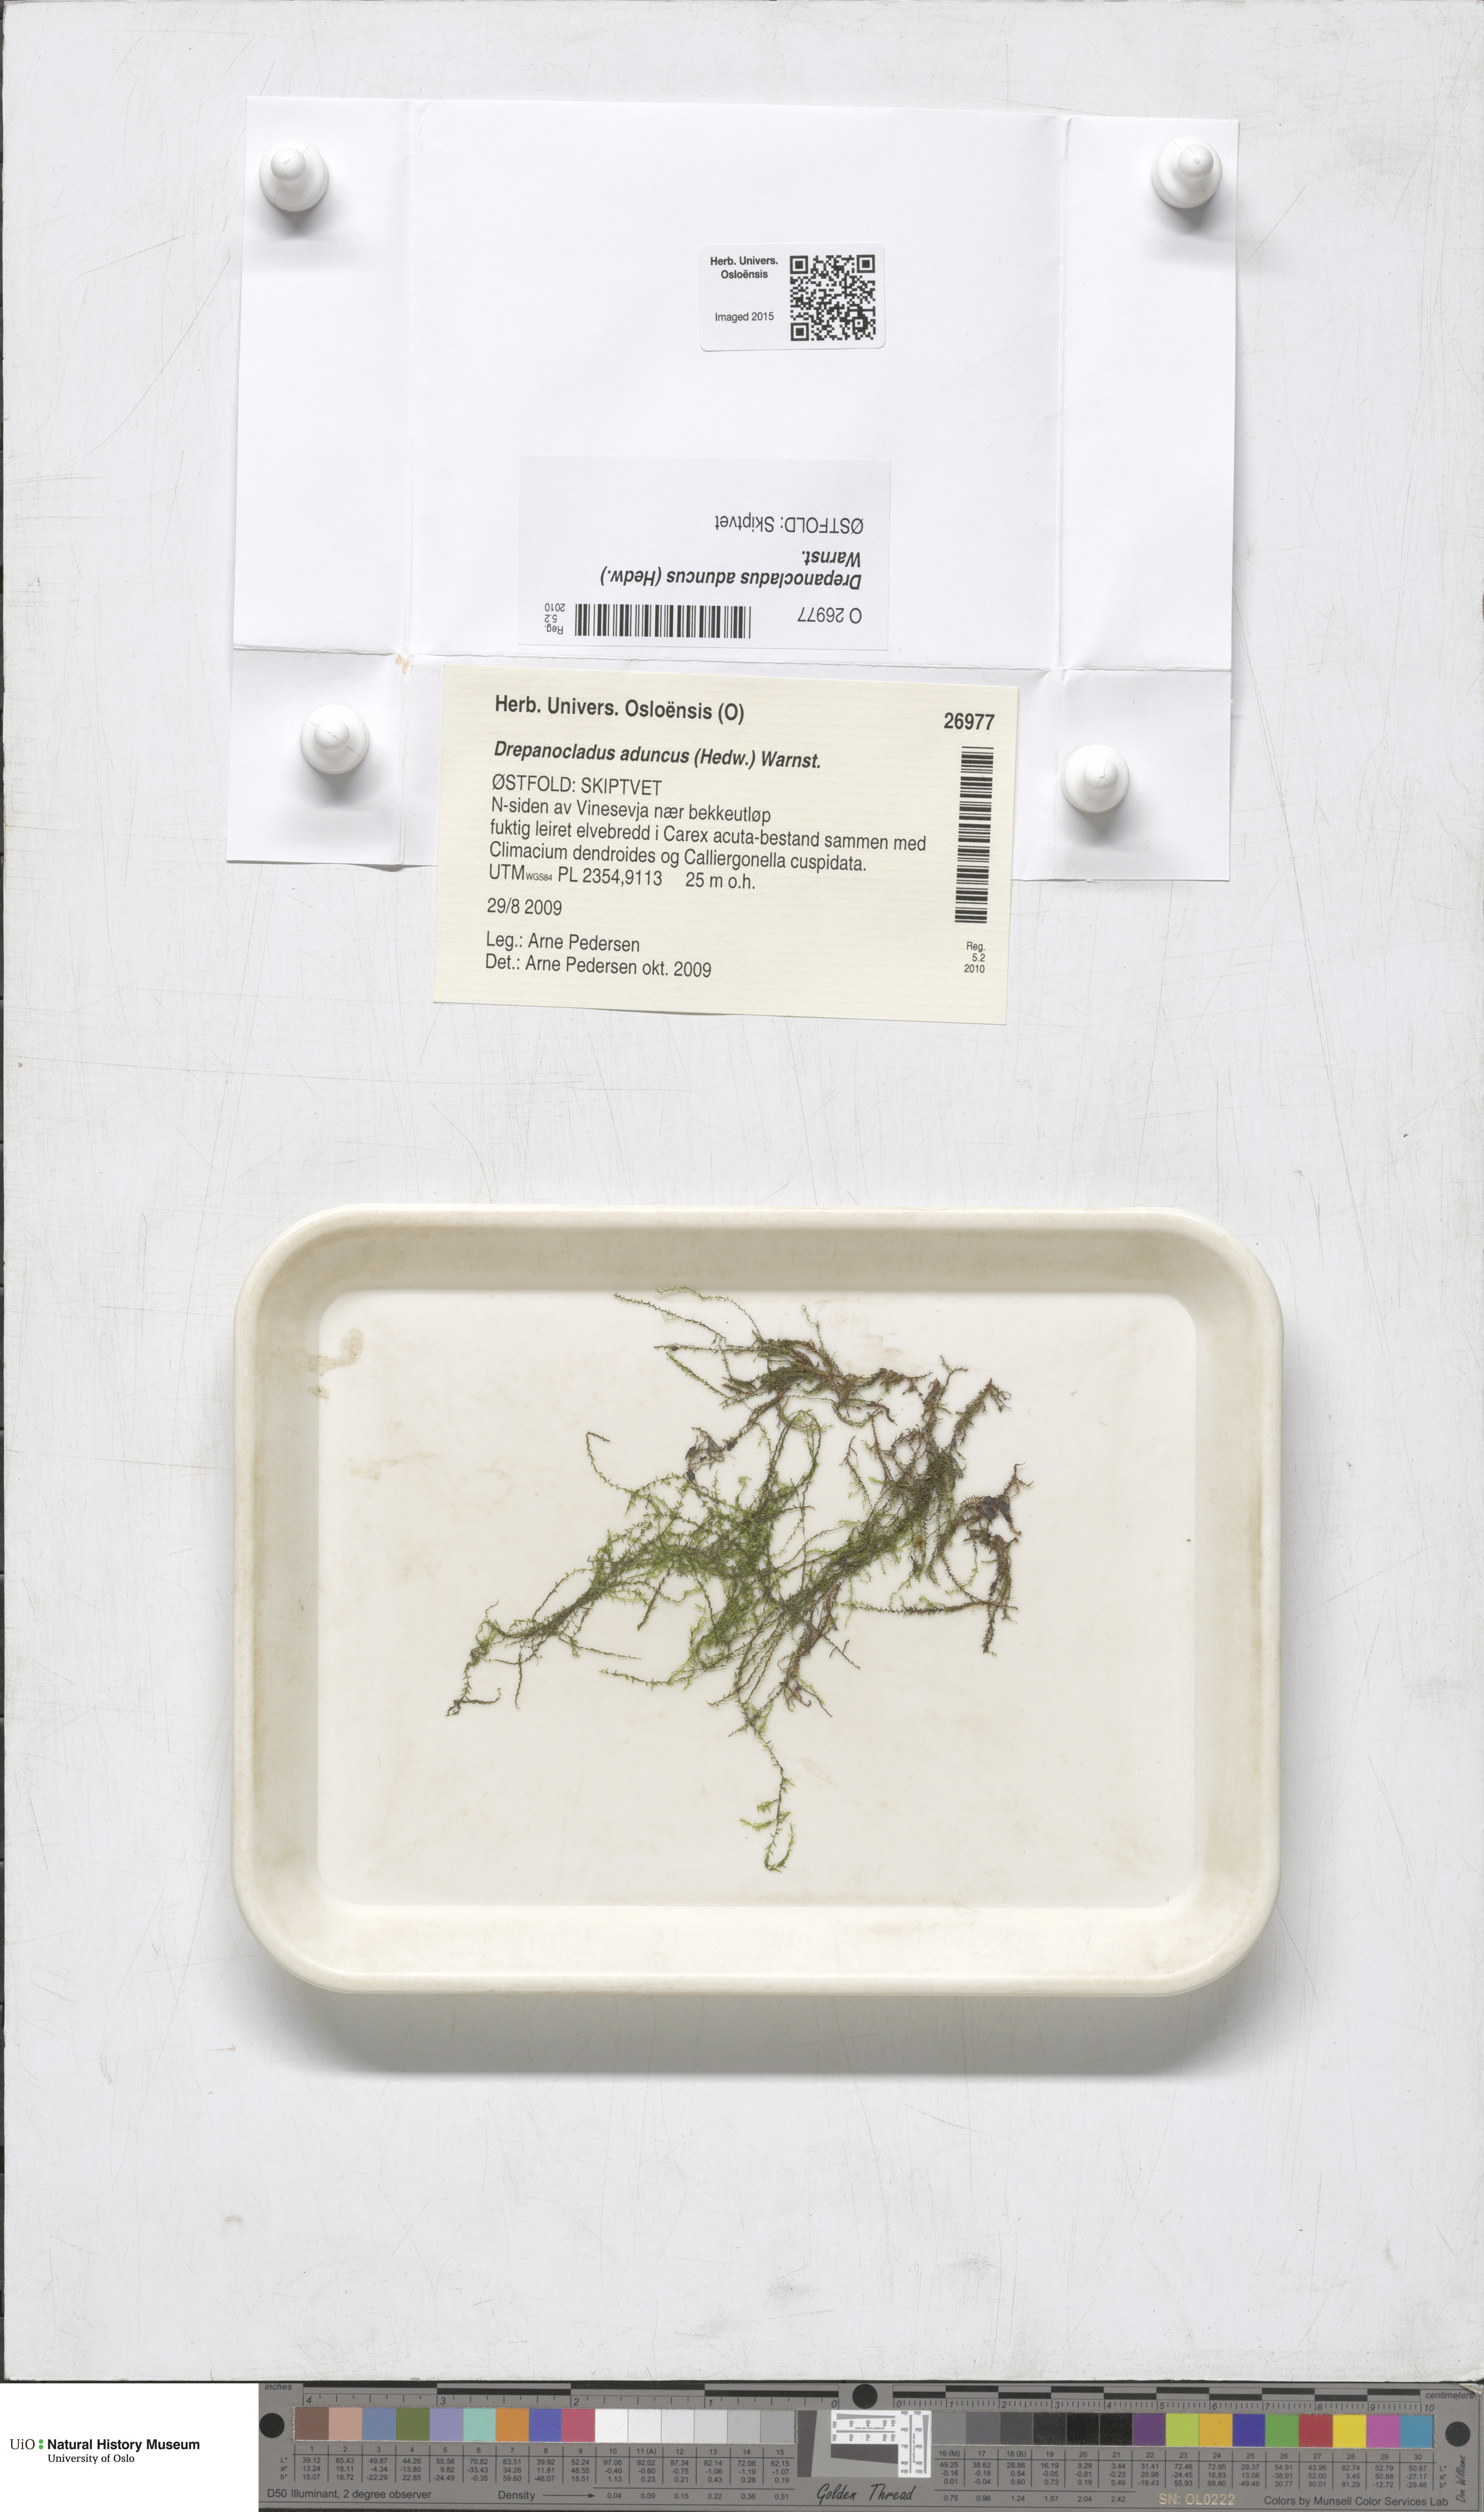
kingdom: Plantae
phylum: Bryophyta
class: Bryopsida
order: Hypnales
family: Amblystegiaceae
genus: Drepanocladus
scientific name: Drepanocladus aduncus
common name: Knieff's hook moss
